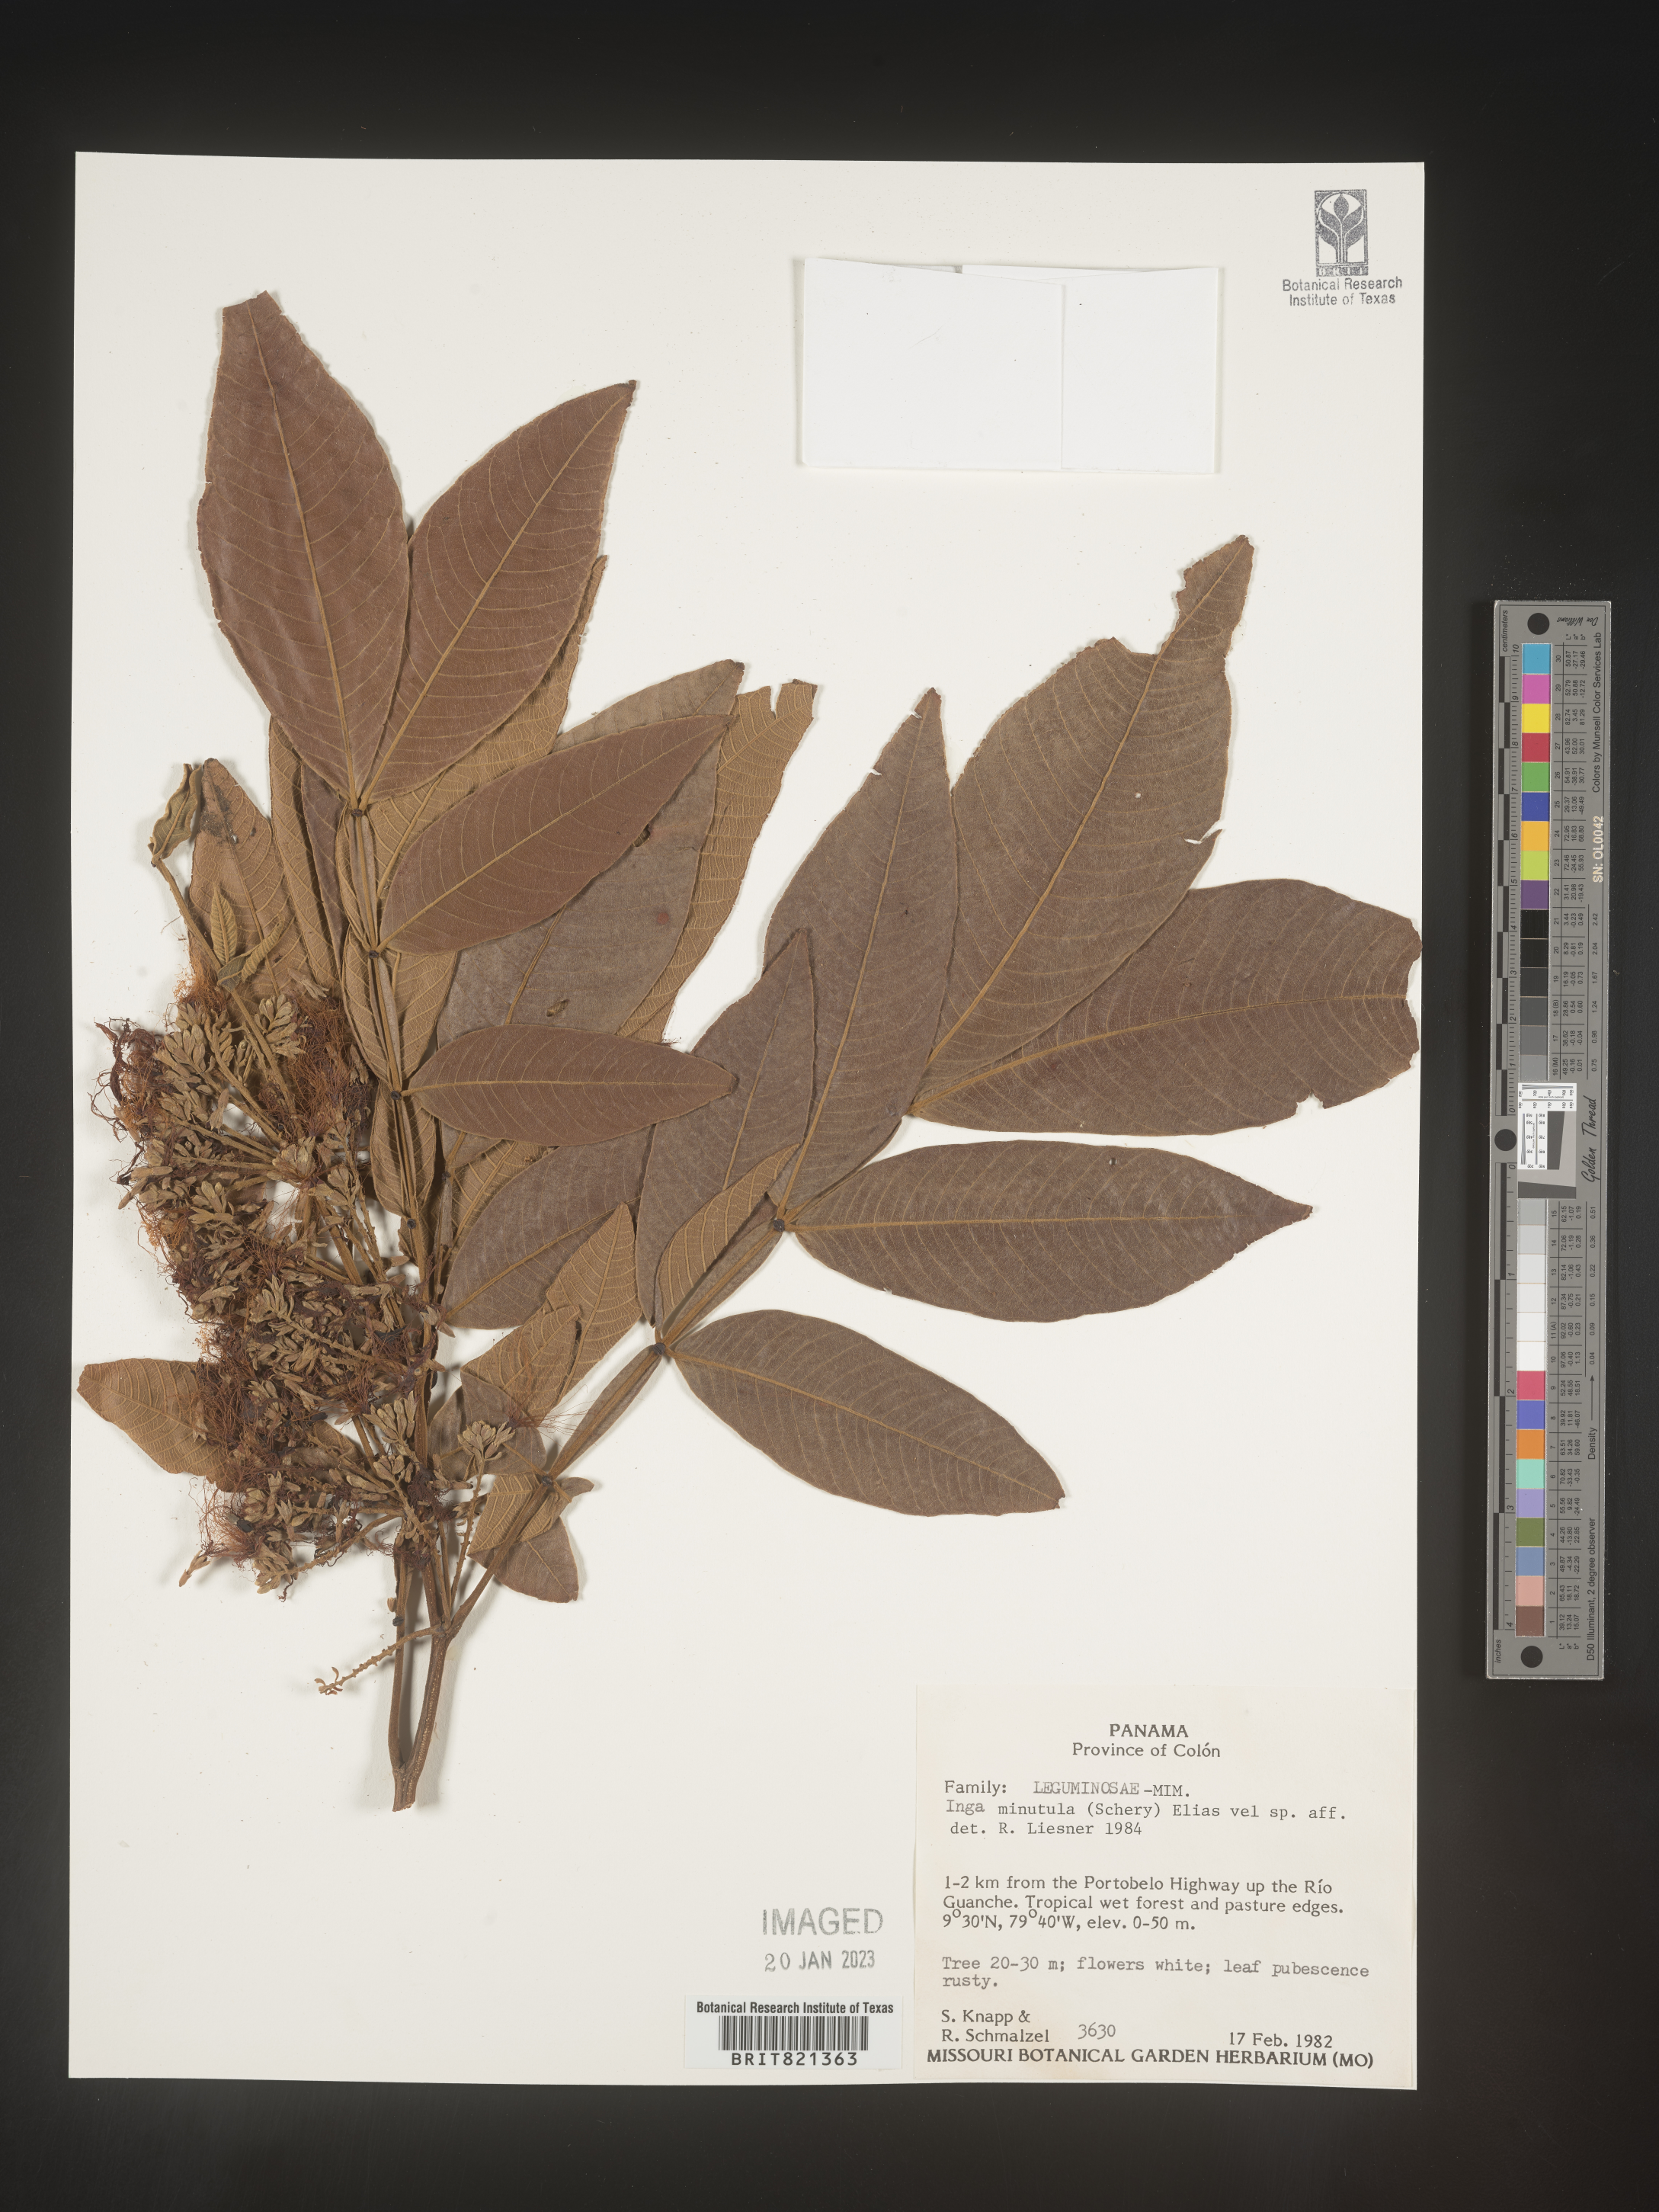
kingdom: Plantae
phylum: Tracheophyta
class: Magnoliopsida
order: Fabales
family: Fabaceae
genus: Inga
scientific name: Inga
